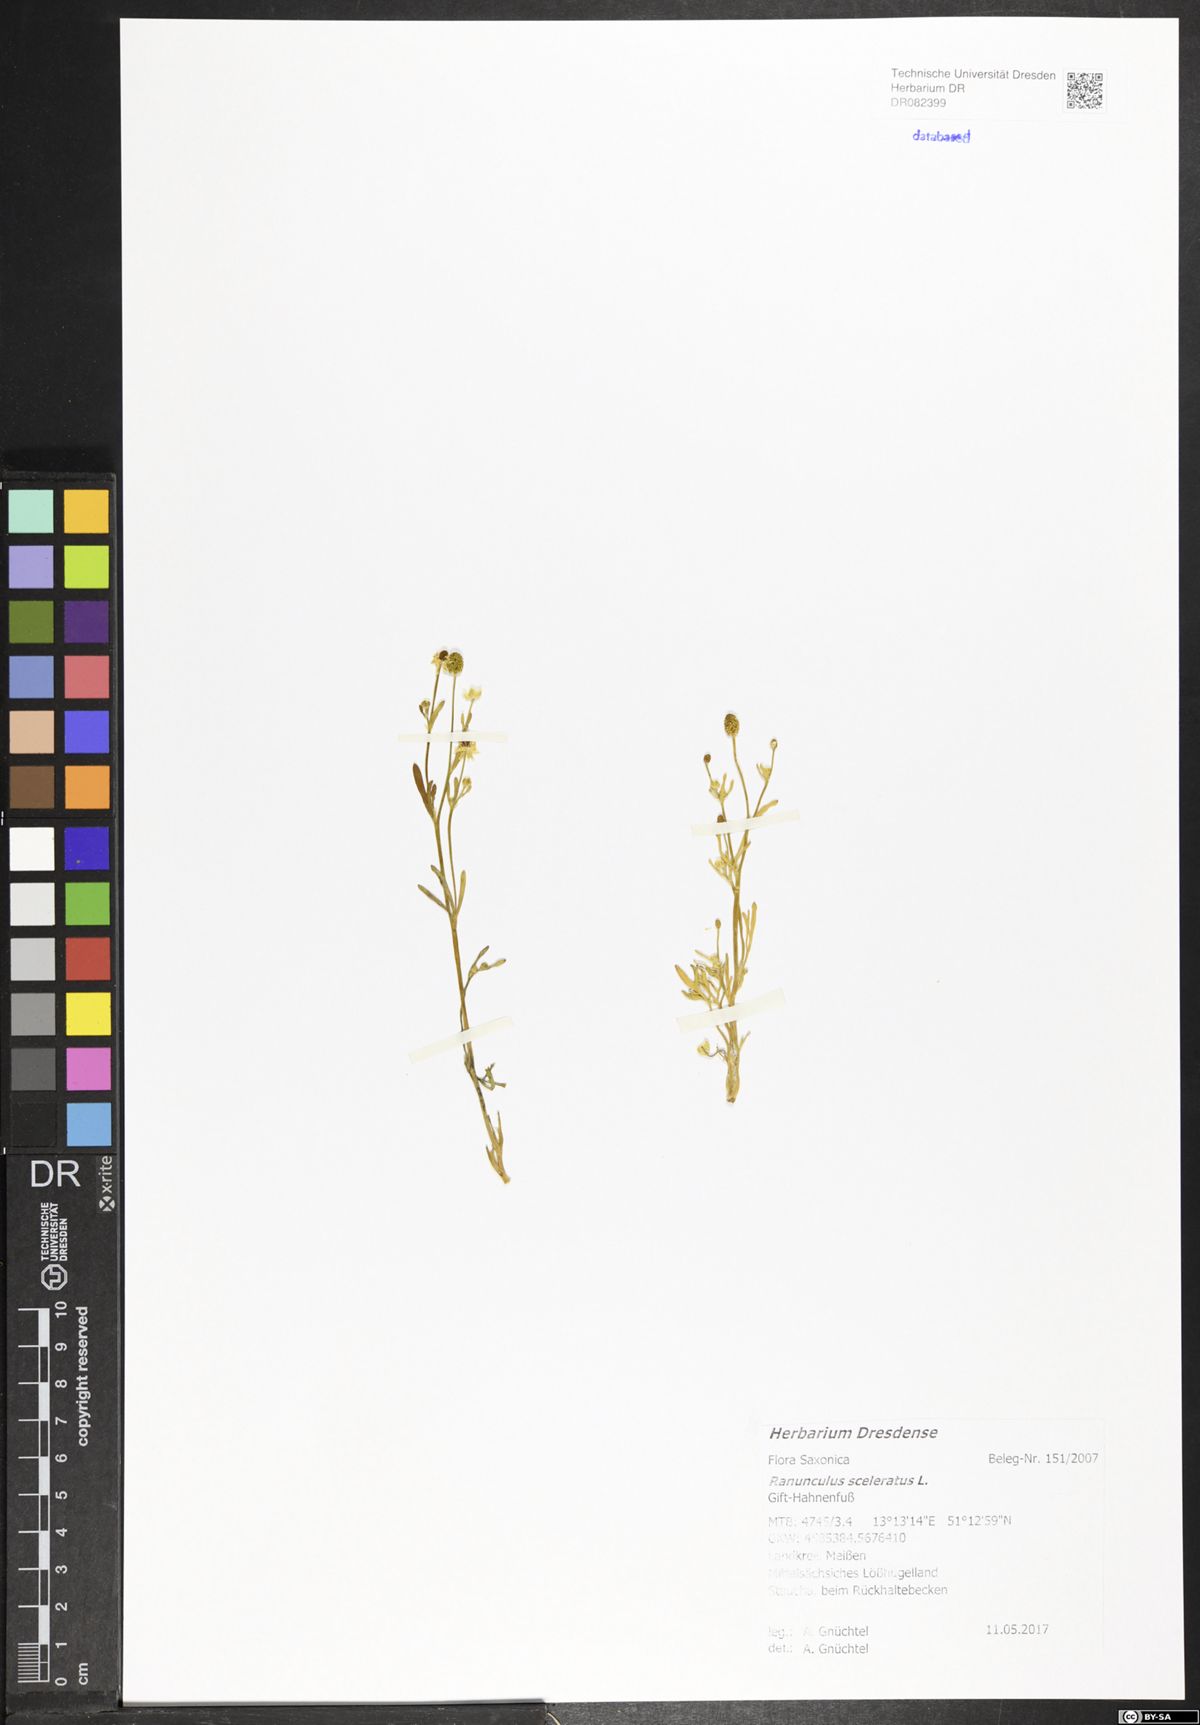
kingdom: Plantae
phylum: Tracheophyta
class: Magnoliopsida
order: Ranunculales
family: Ranunculaceae
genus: Ranunculus
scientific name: Ranunculus sceleratus
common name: Celery-leaved buttercup
